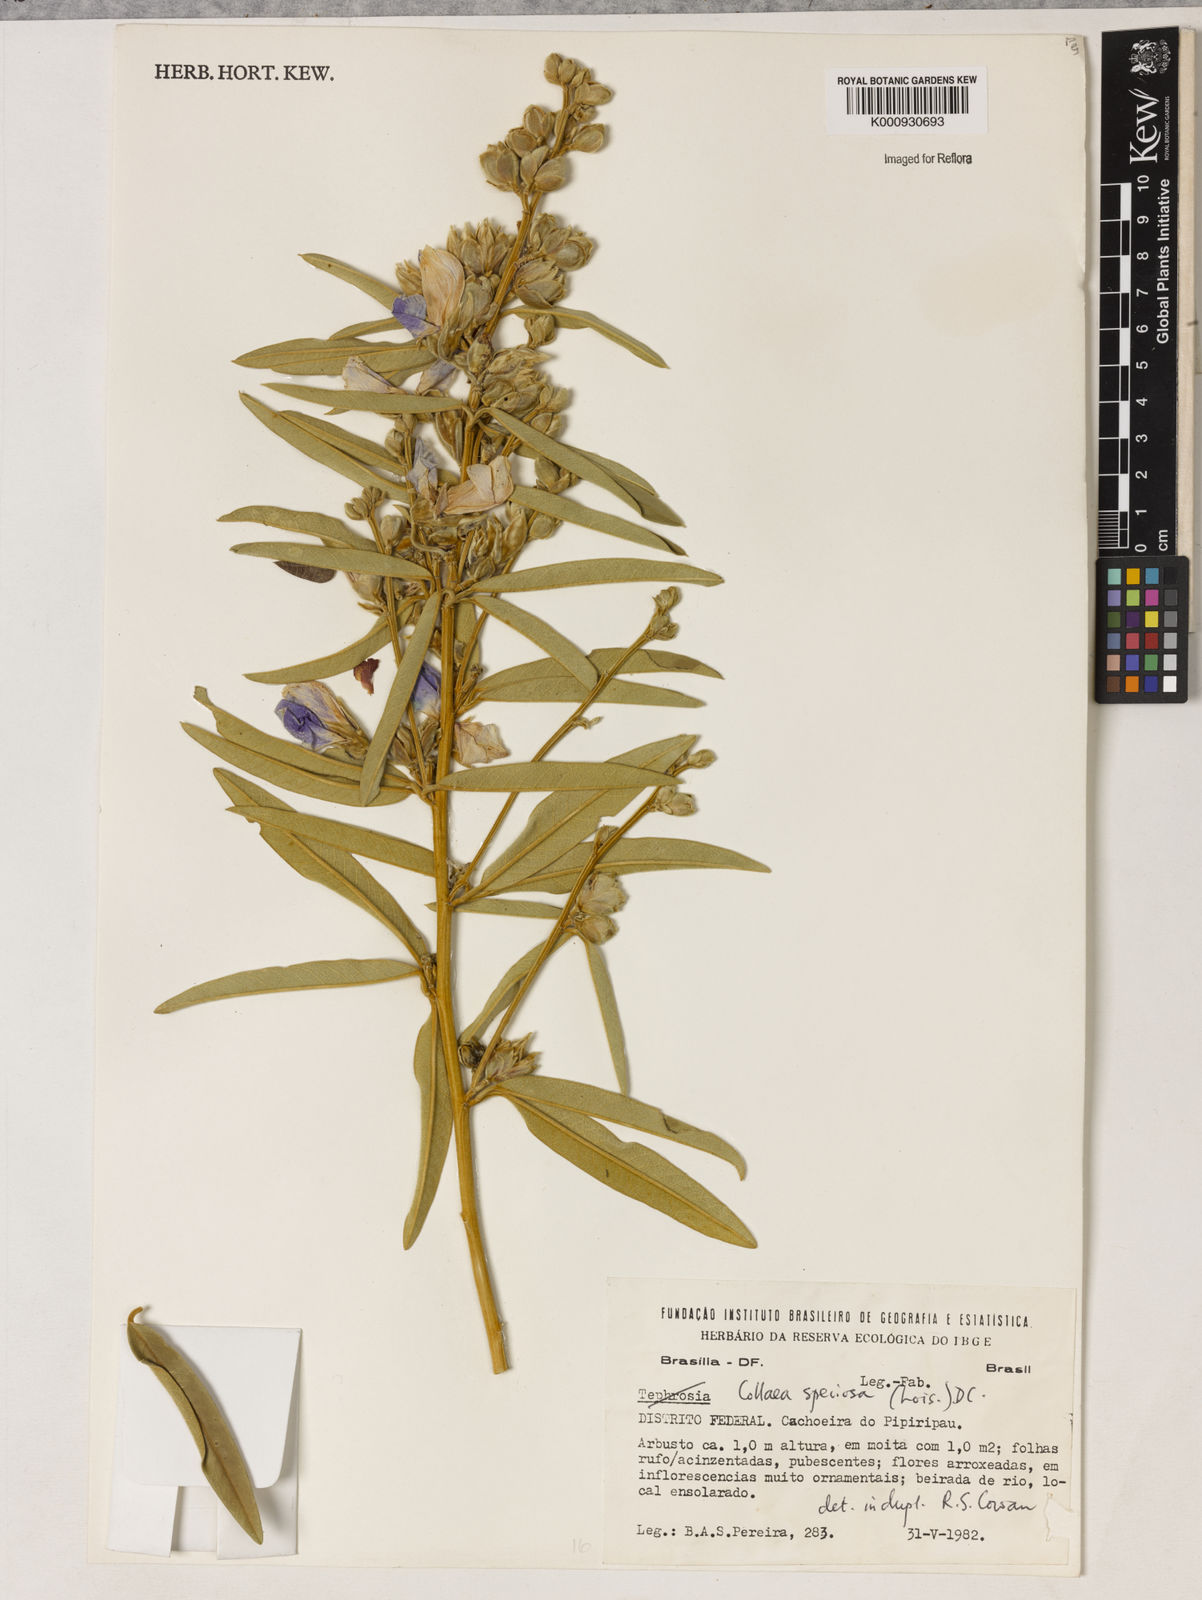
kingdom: Plantae
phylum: Tracheophyta
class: Magnoliopsida
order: Lamiales
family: Lamiaceae
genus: Coleus
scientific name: Coleus barbatus
